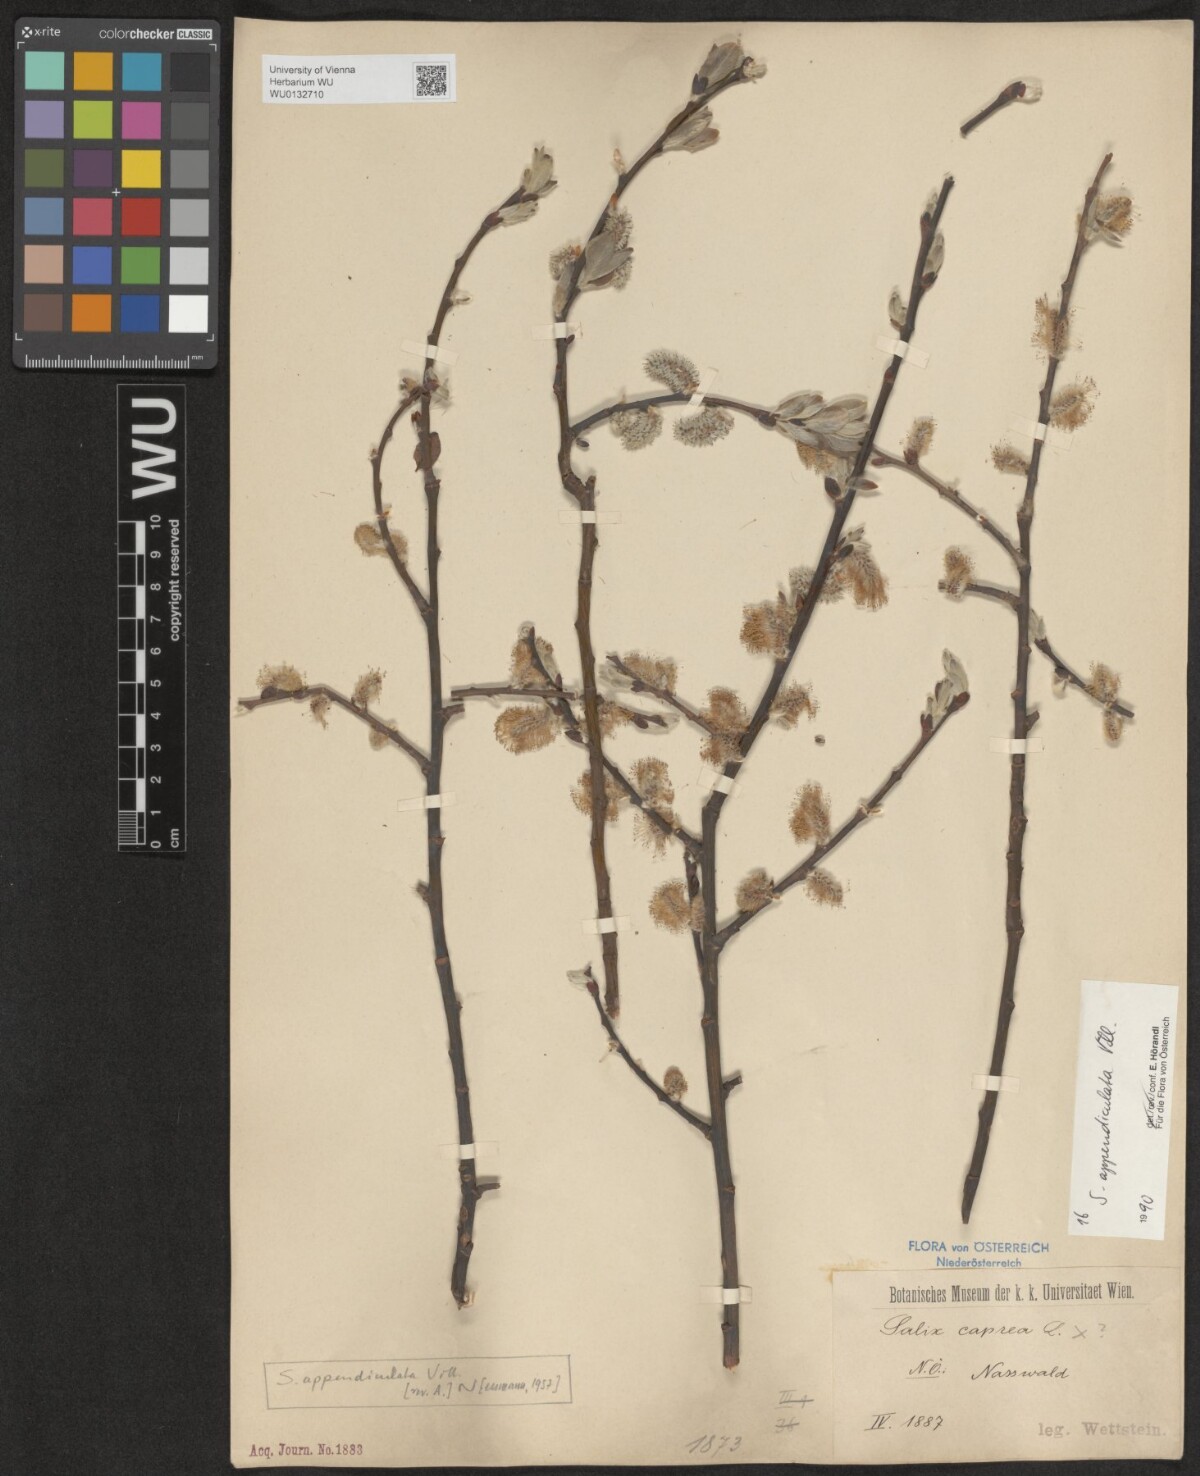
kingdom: Plantae
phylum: Tracheophyta
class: Magnoliopsida
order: Malpighiales
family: Salicaceae
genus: Salix
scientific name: Salix appendiculata
